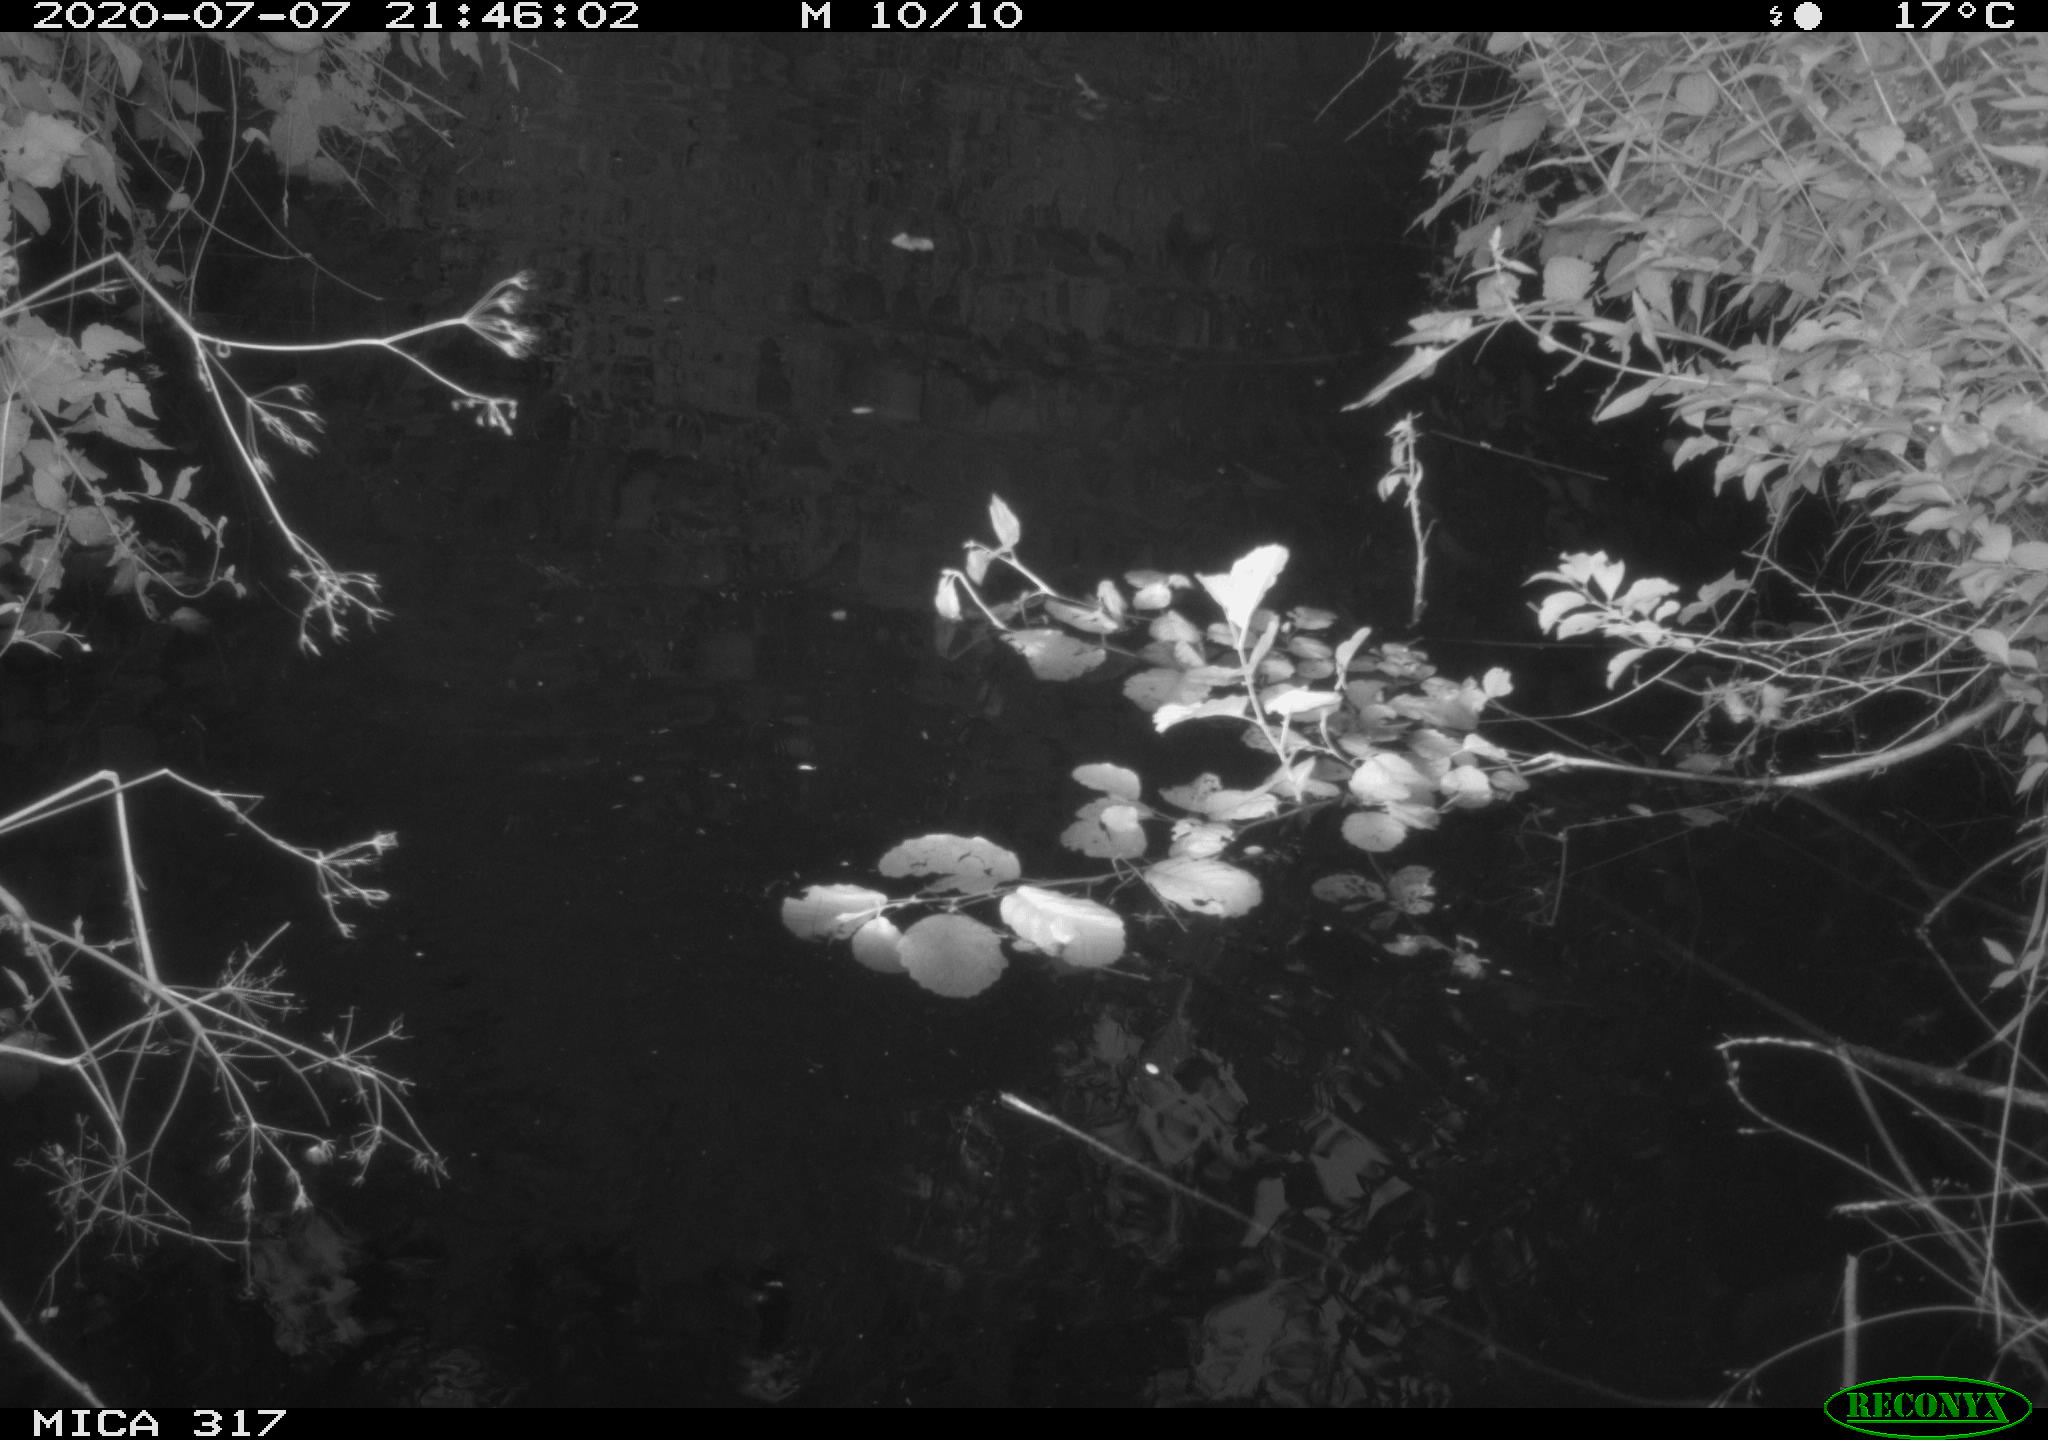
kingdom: Animalia
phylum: Chordata
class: Aves
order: Anseriformes
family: Anatidae
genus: Anas
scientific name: Anas platyrhynchos
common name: Mallard
